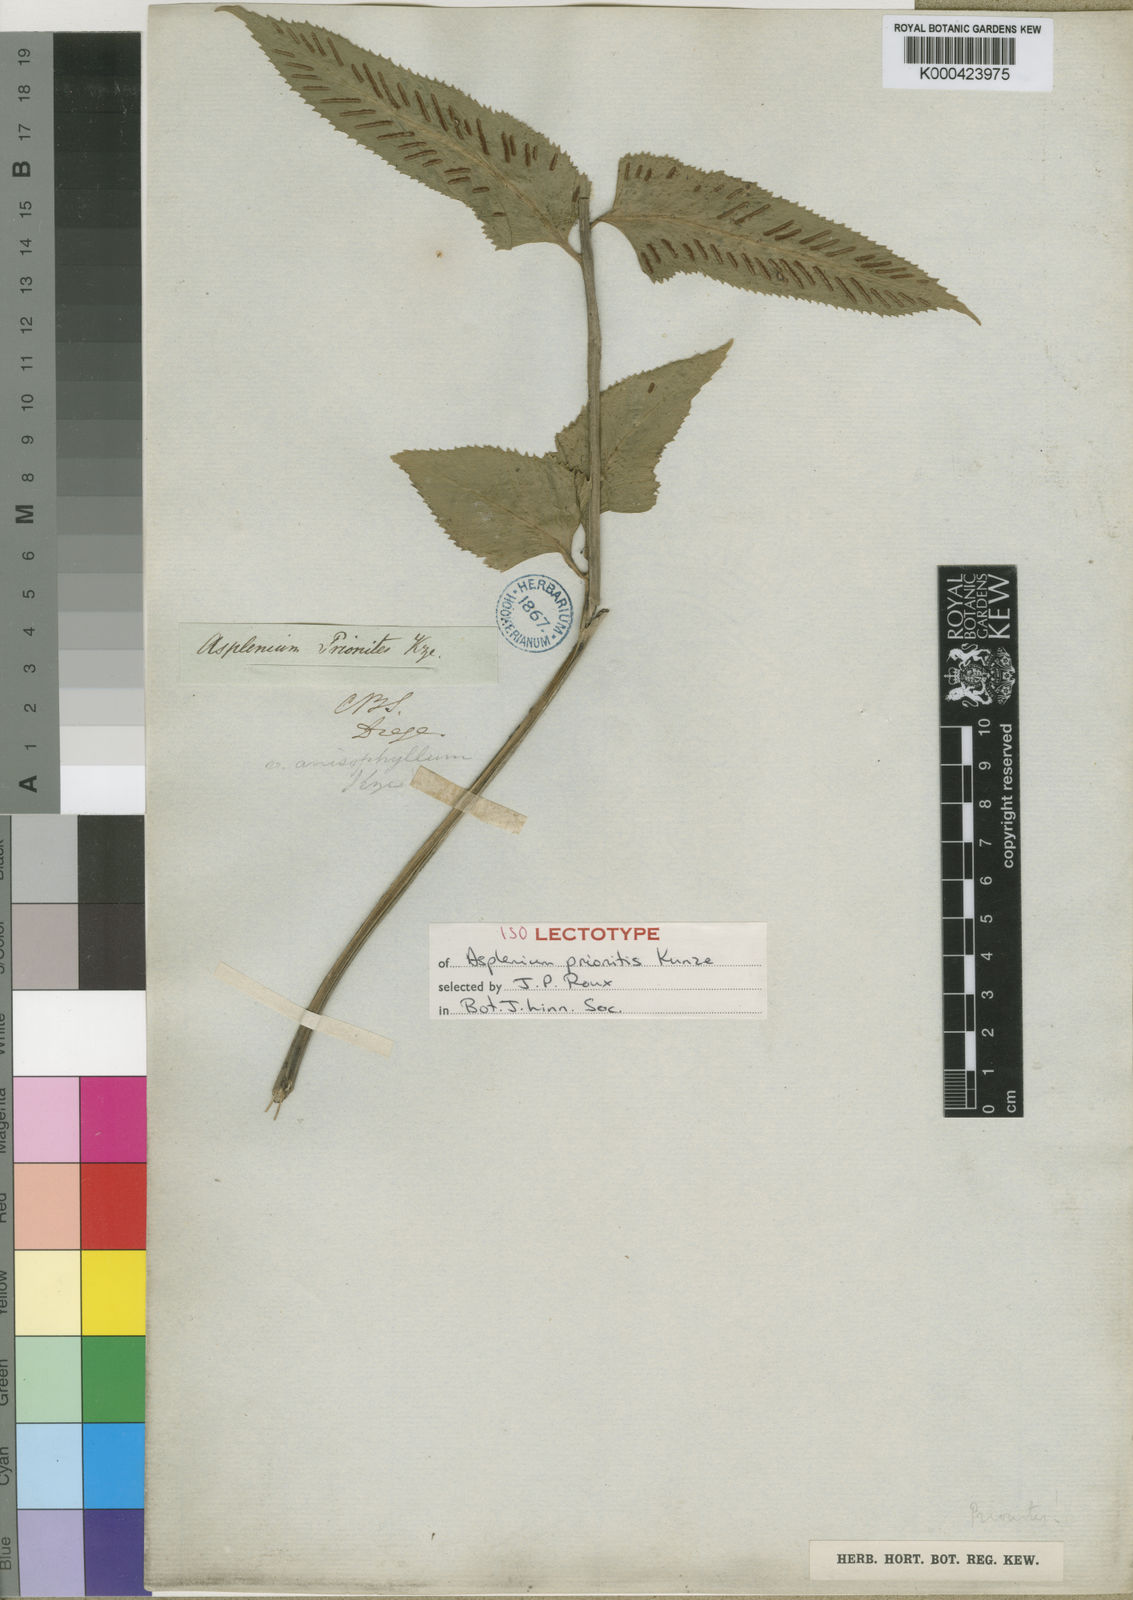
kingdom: Plantae
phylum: Tracheophyta
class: Polypodiopsida
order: Polypodiales
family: Aspleniaceae
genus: Asplenium
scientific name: Asplenium
